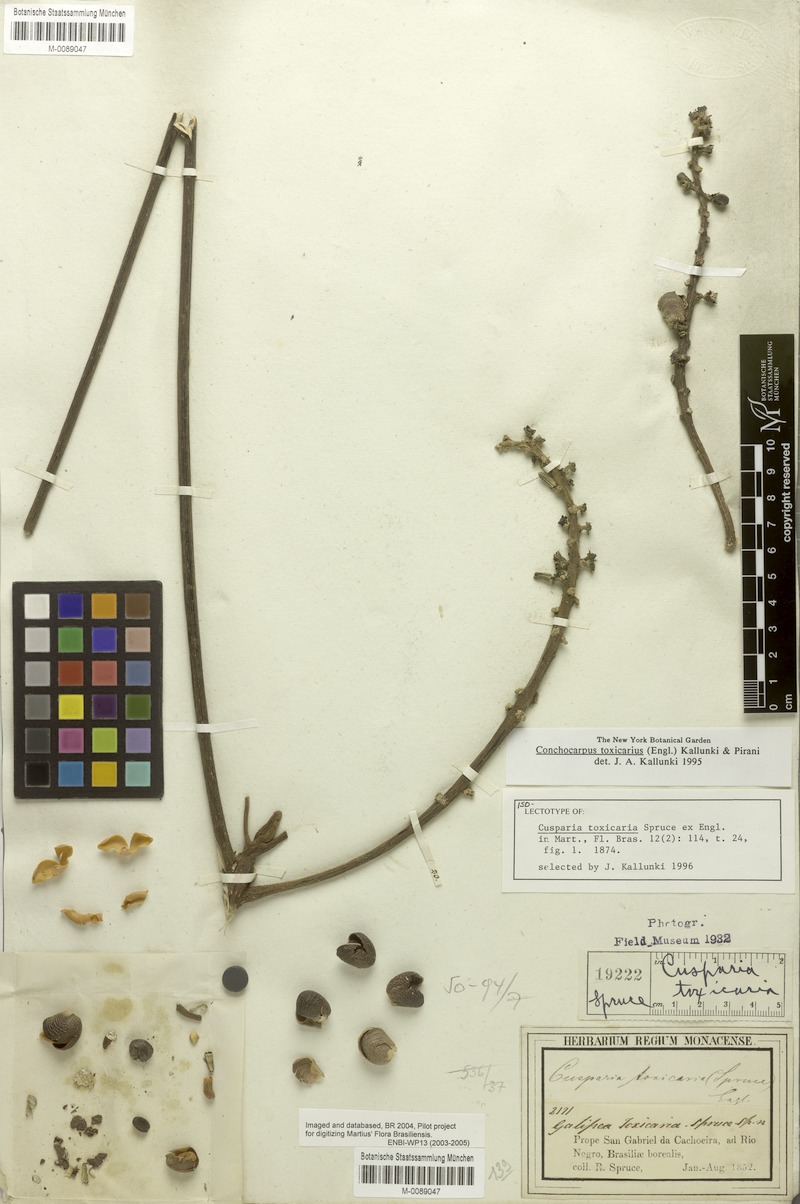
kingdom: Plantae
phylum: Tracheophyta
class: Magnoliopsida
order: Sapindales
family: Rutaceae
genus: Conchocarpus
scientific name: Conchocarpus toxicarius
